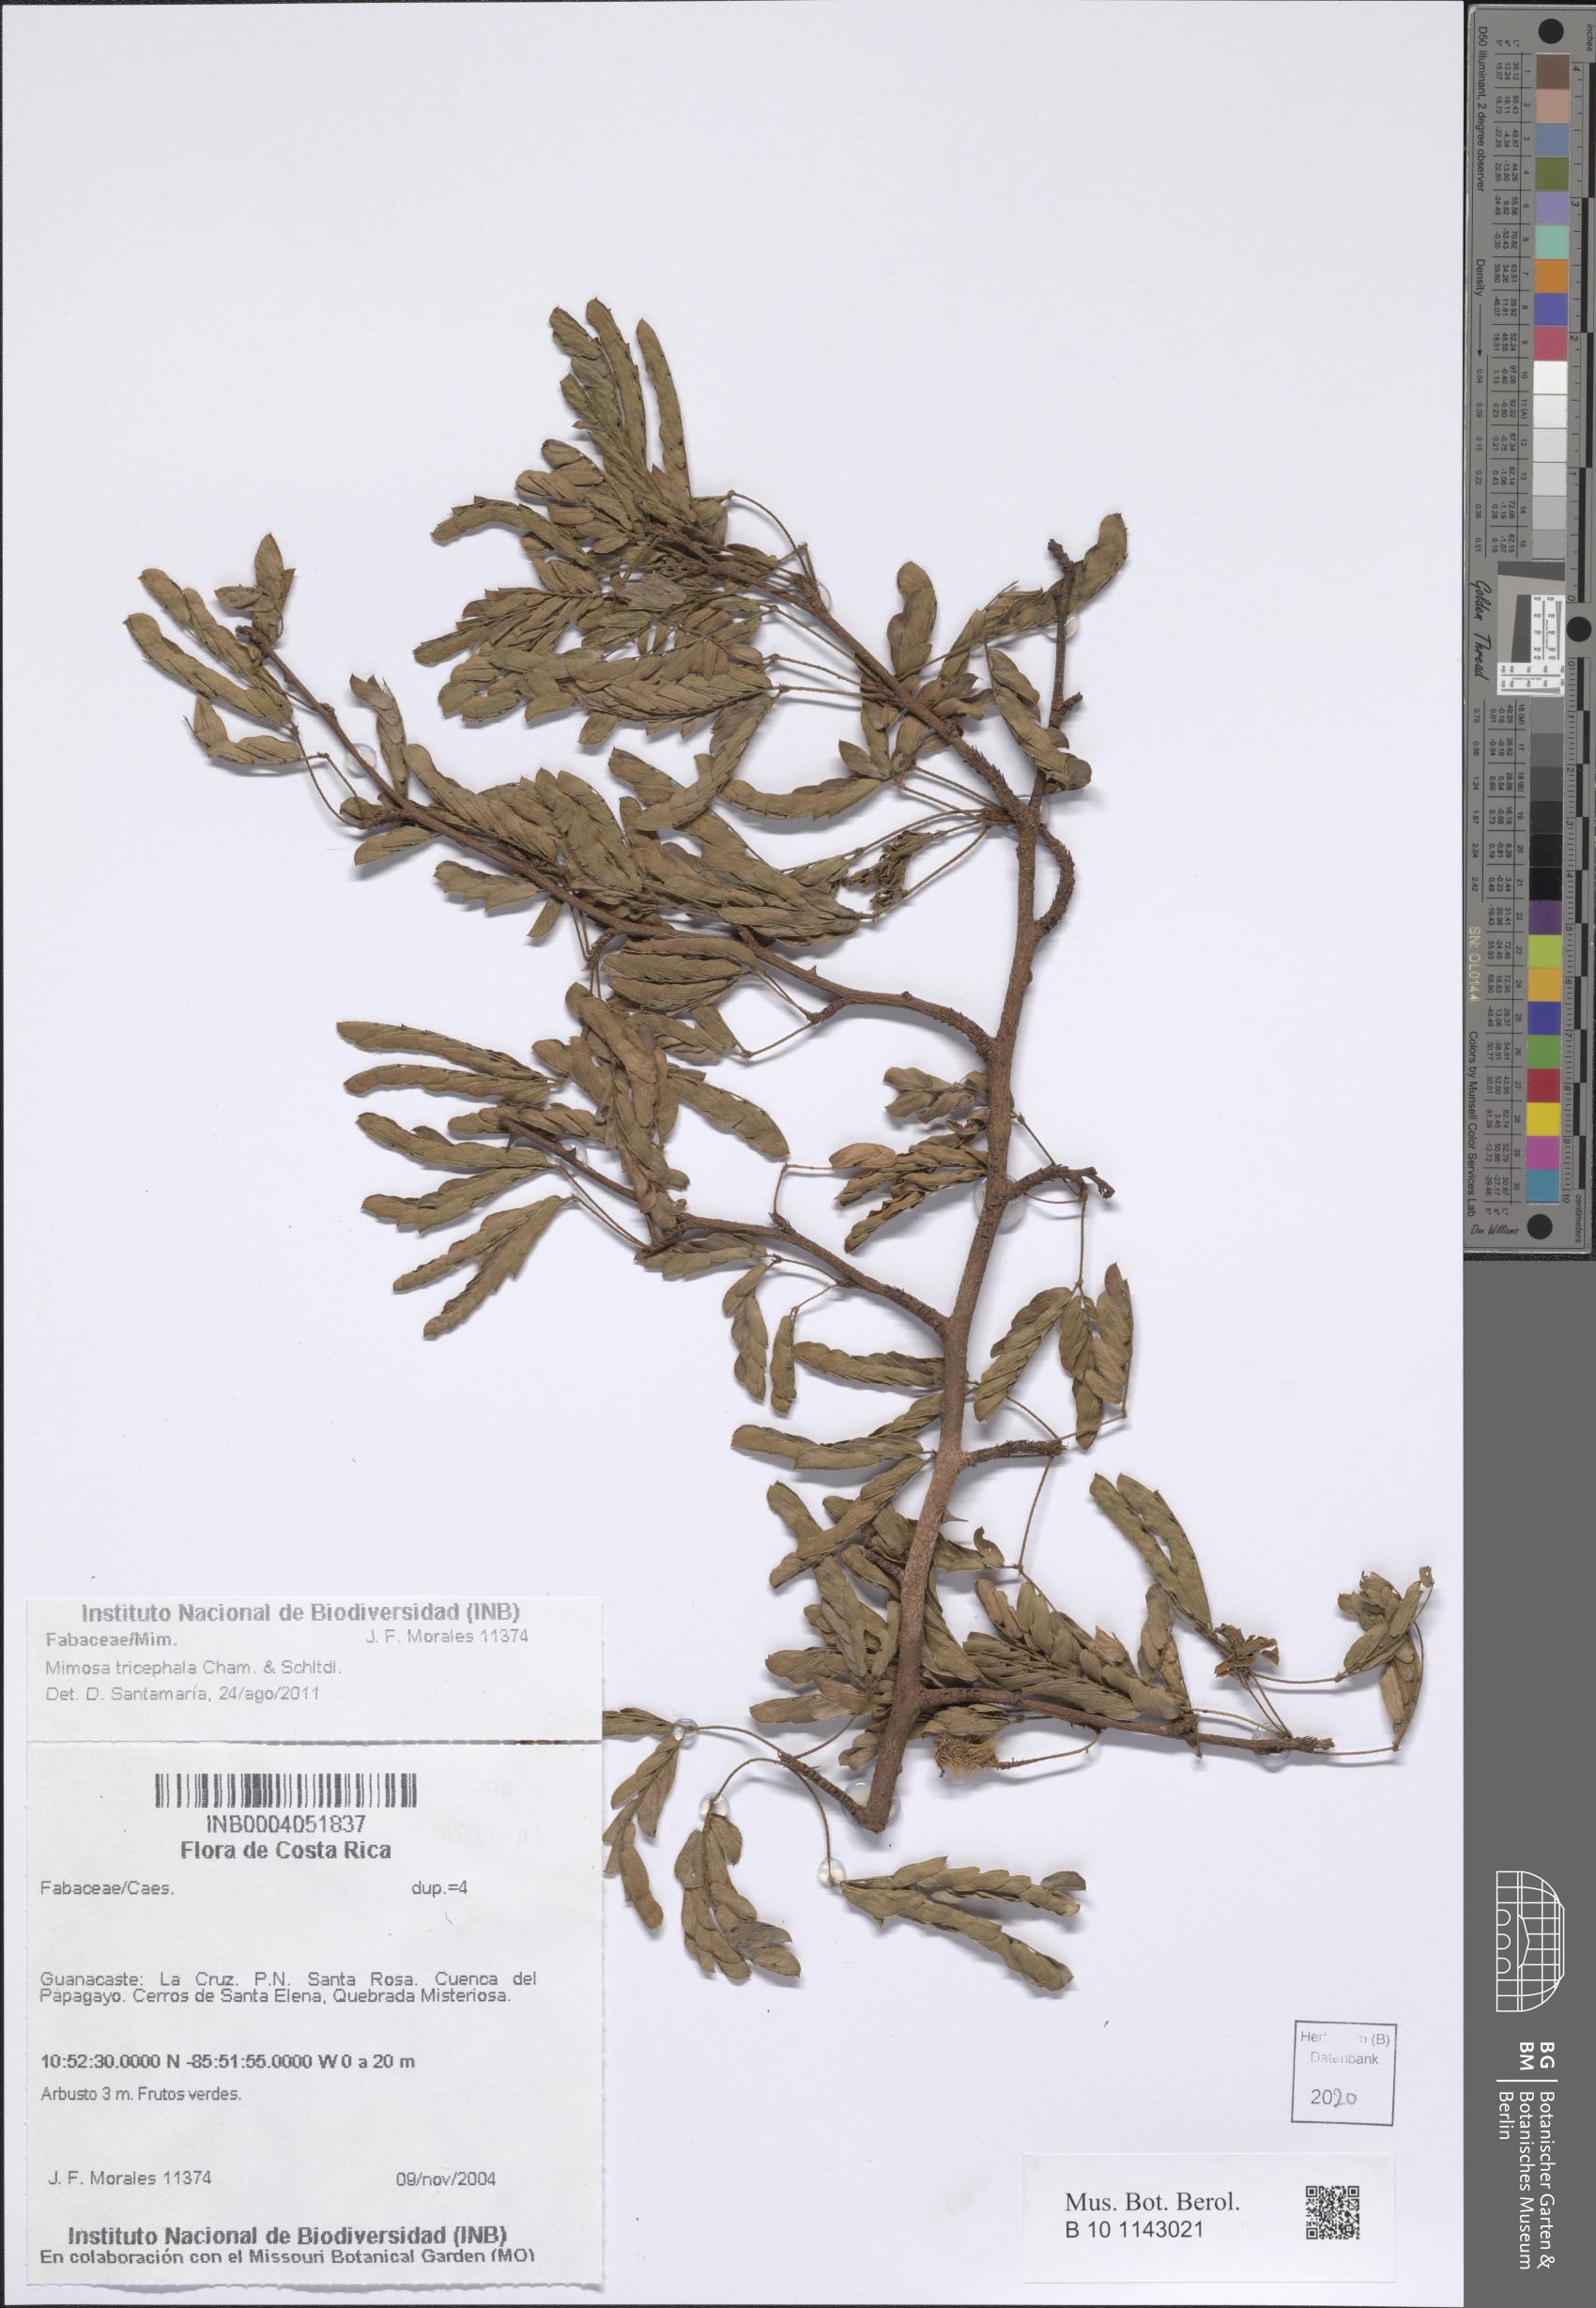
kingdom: Plantae
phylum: Tracheophyta
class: Magnoliopsida
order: Fabales
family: Fabaceae
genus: Mimosa
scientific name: Mimosa tricephala
